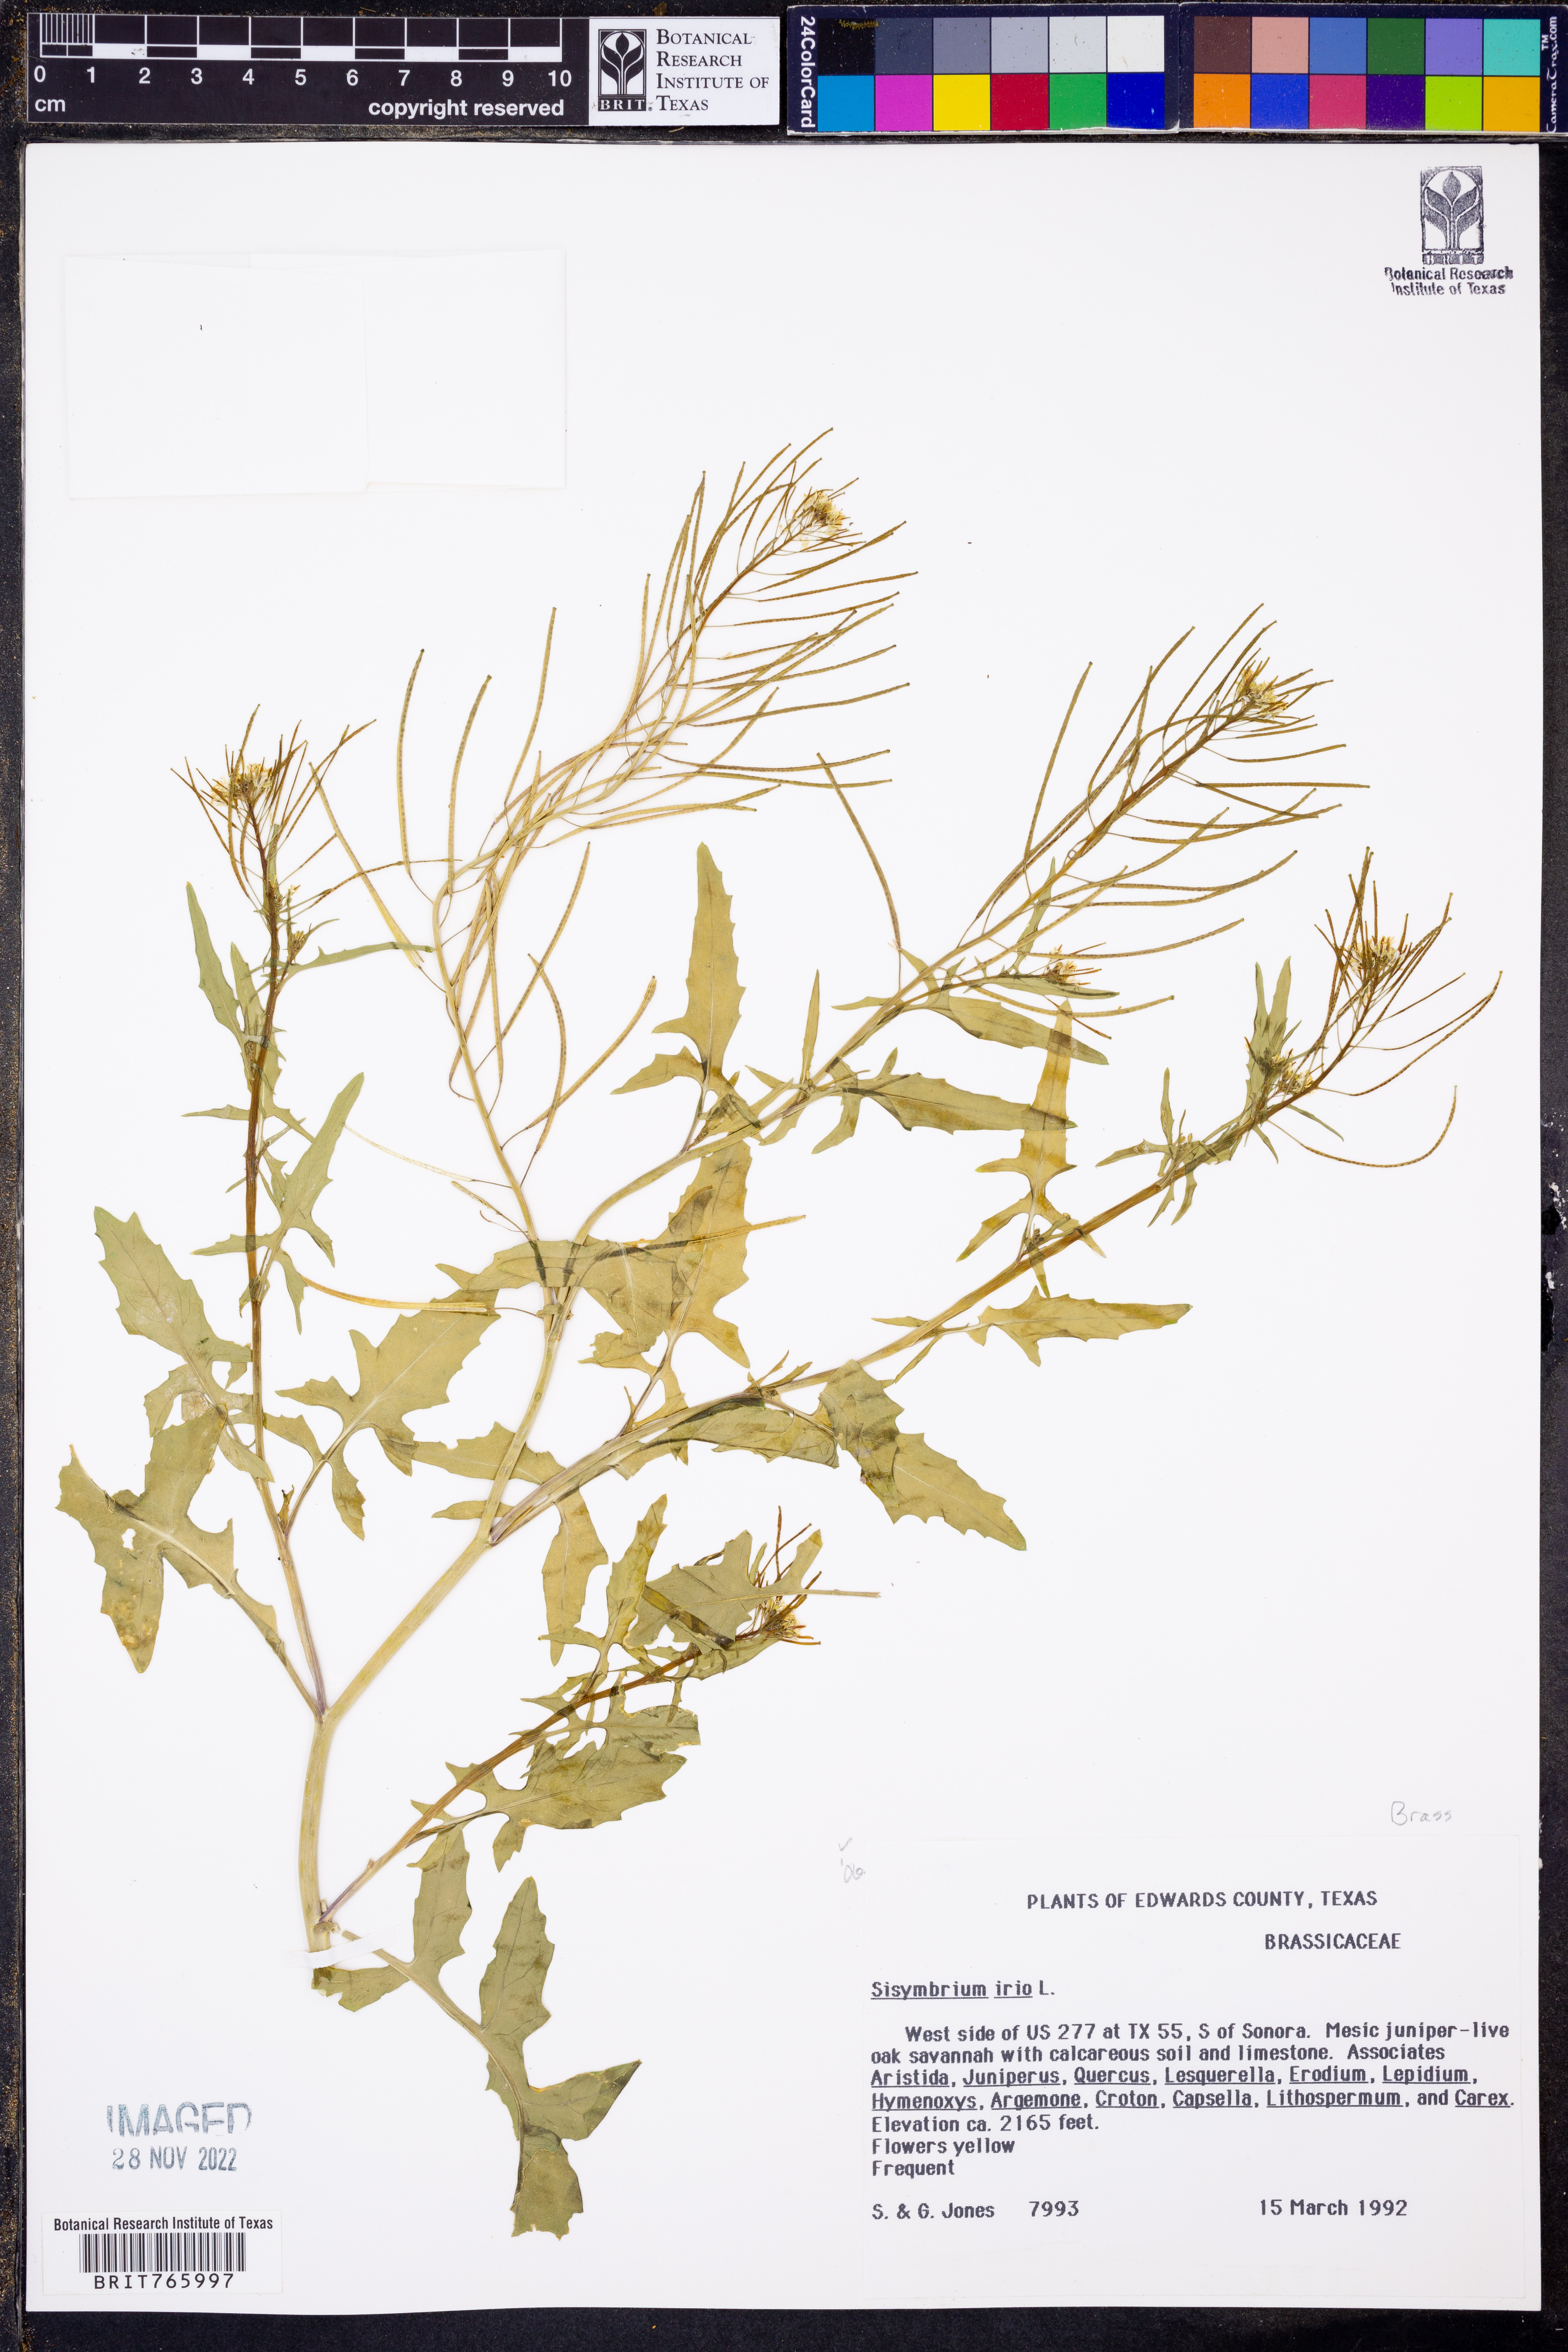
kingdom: Plantae
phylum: Tracheophyta
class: Magnoliopsida
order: Brassicales
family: Brassicaceae
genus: Sisymbrium
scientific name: Sisymbrium irio
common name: London rocket
